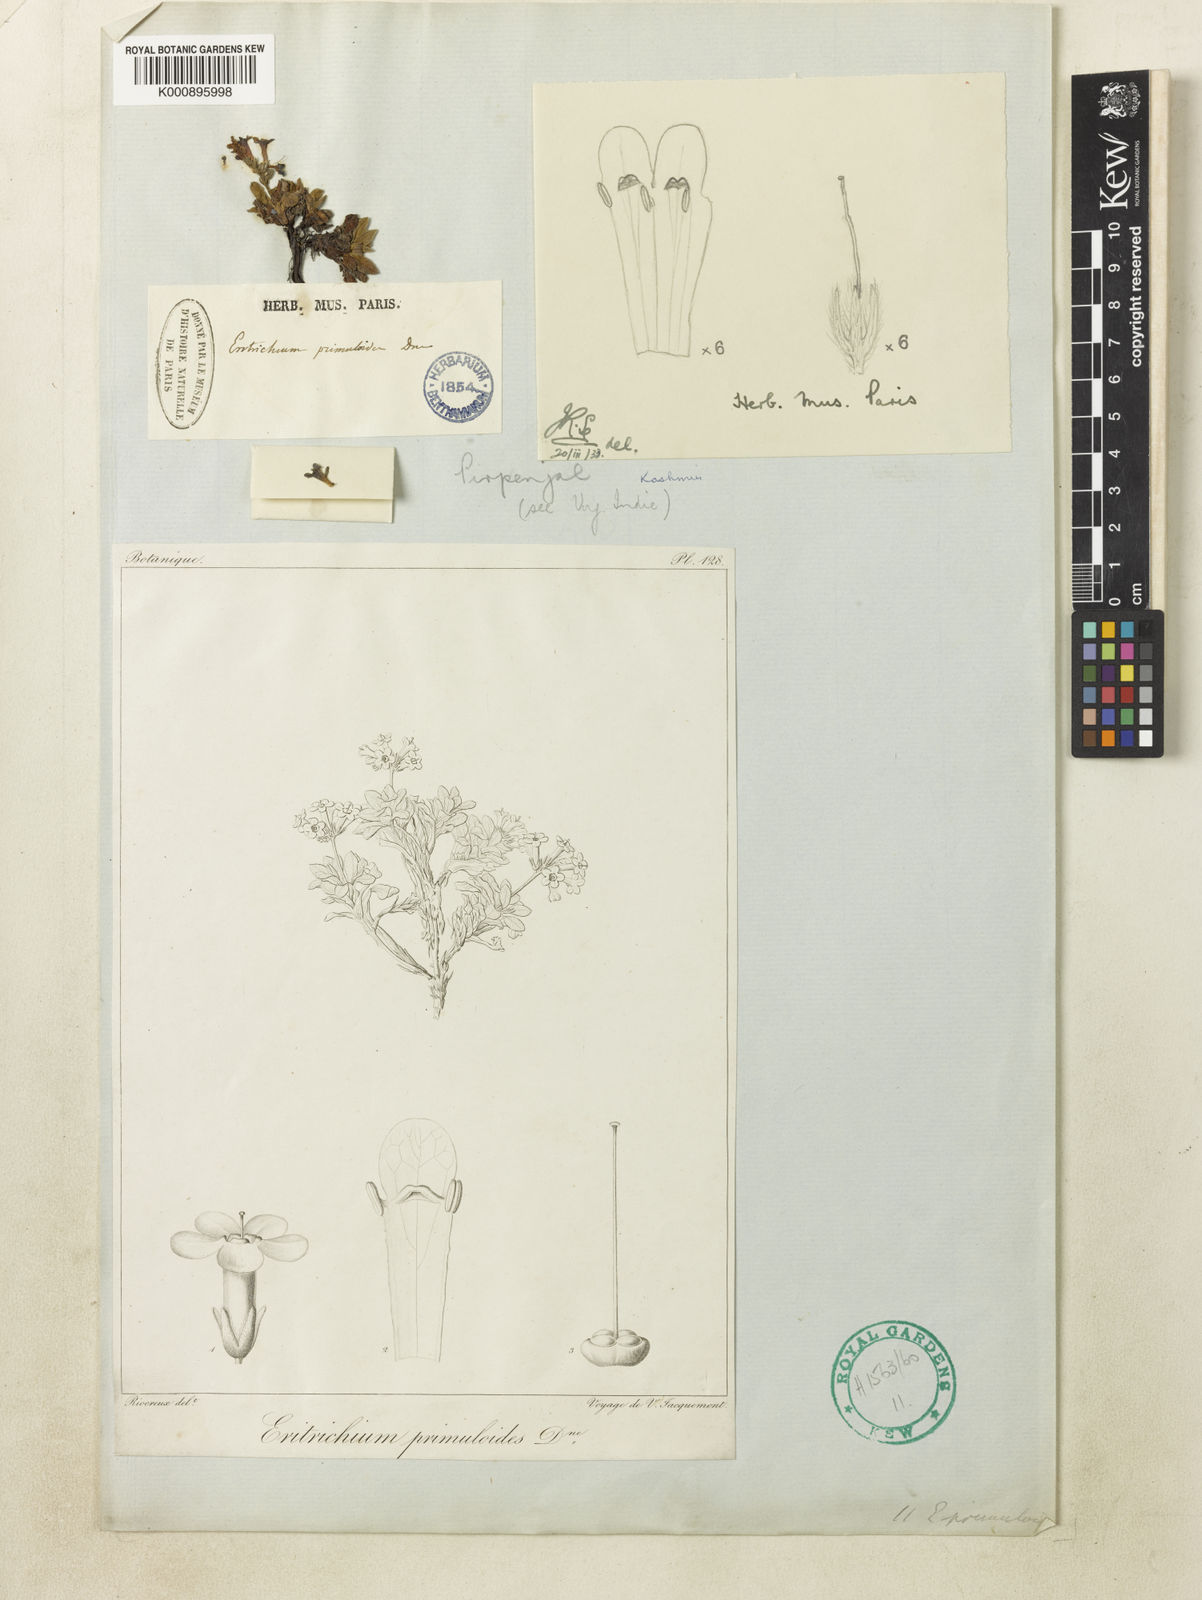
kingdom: Plantae
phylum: Tracheophyta
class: Magnoliopsida
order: Boraginales
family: Boraginaceae
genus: Decalepidanthus
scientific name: Decalepidanthus primuloides
